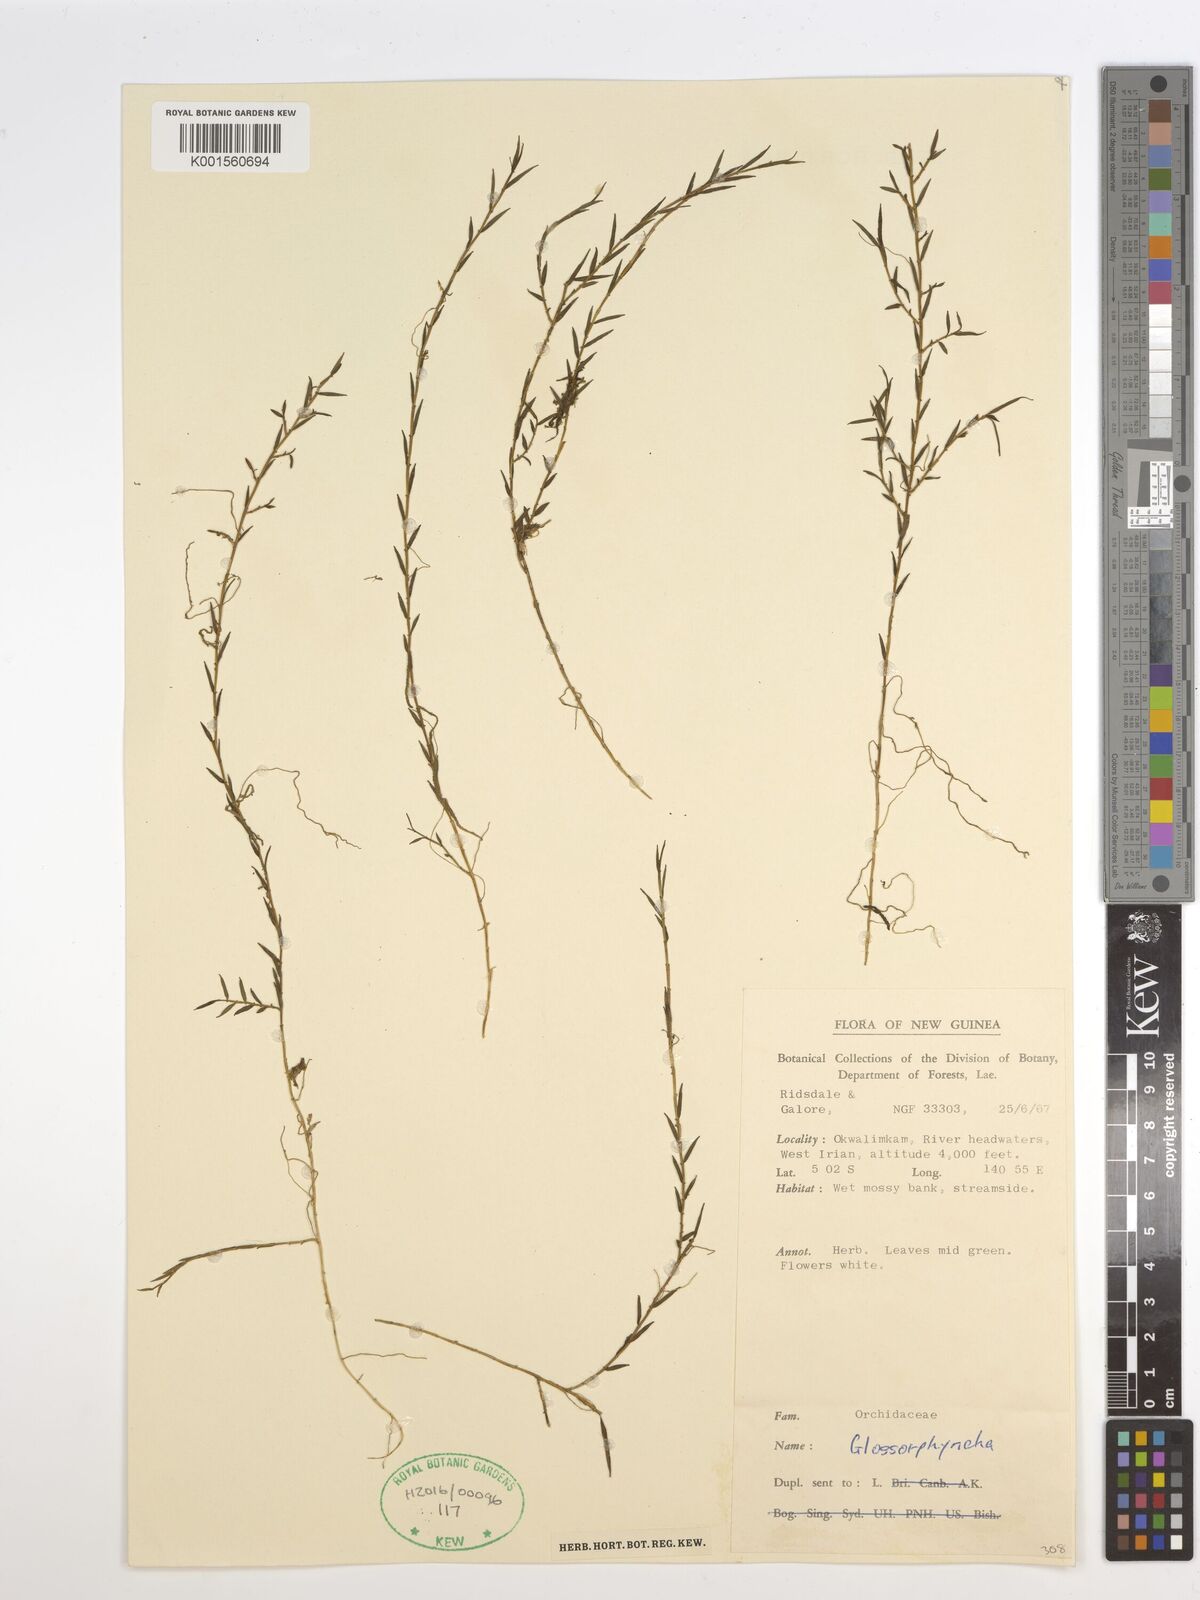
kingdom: Plantae
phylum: Tracheophyta
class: Liliopsida
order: Asparagales
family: Orchidaceae
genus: Glomera
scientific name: Glomera
